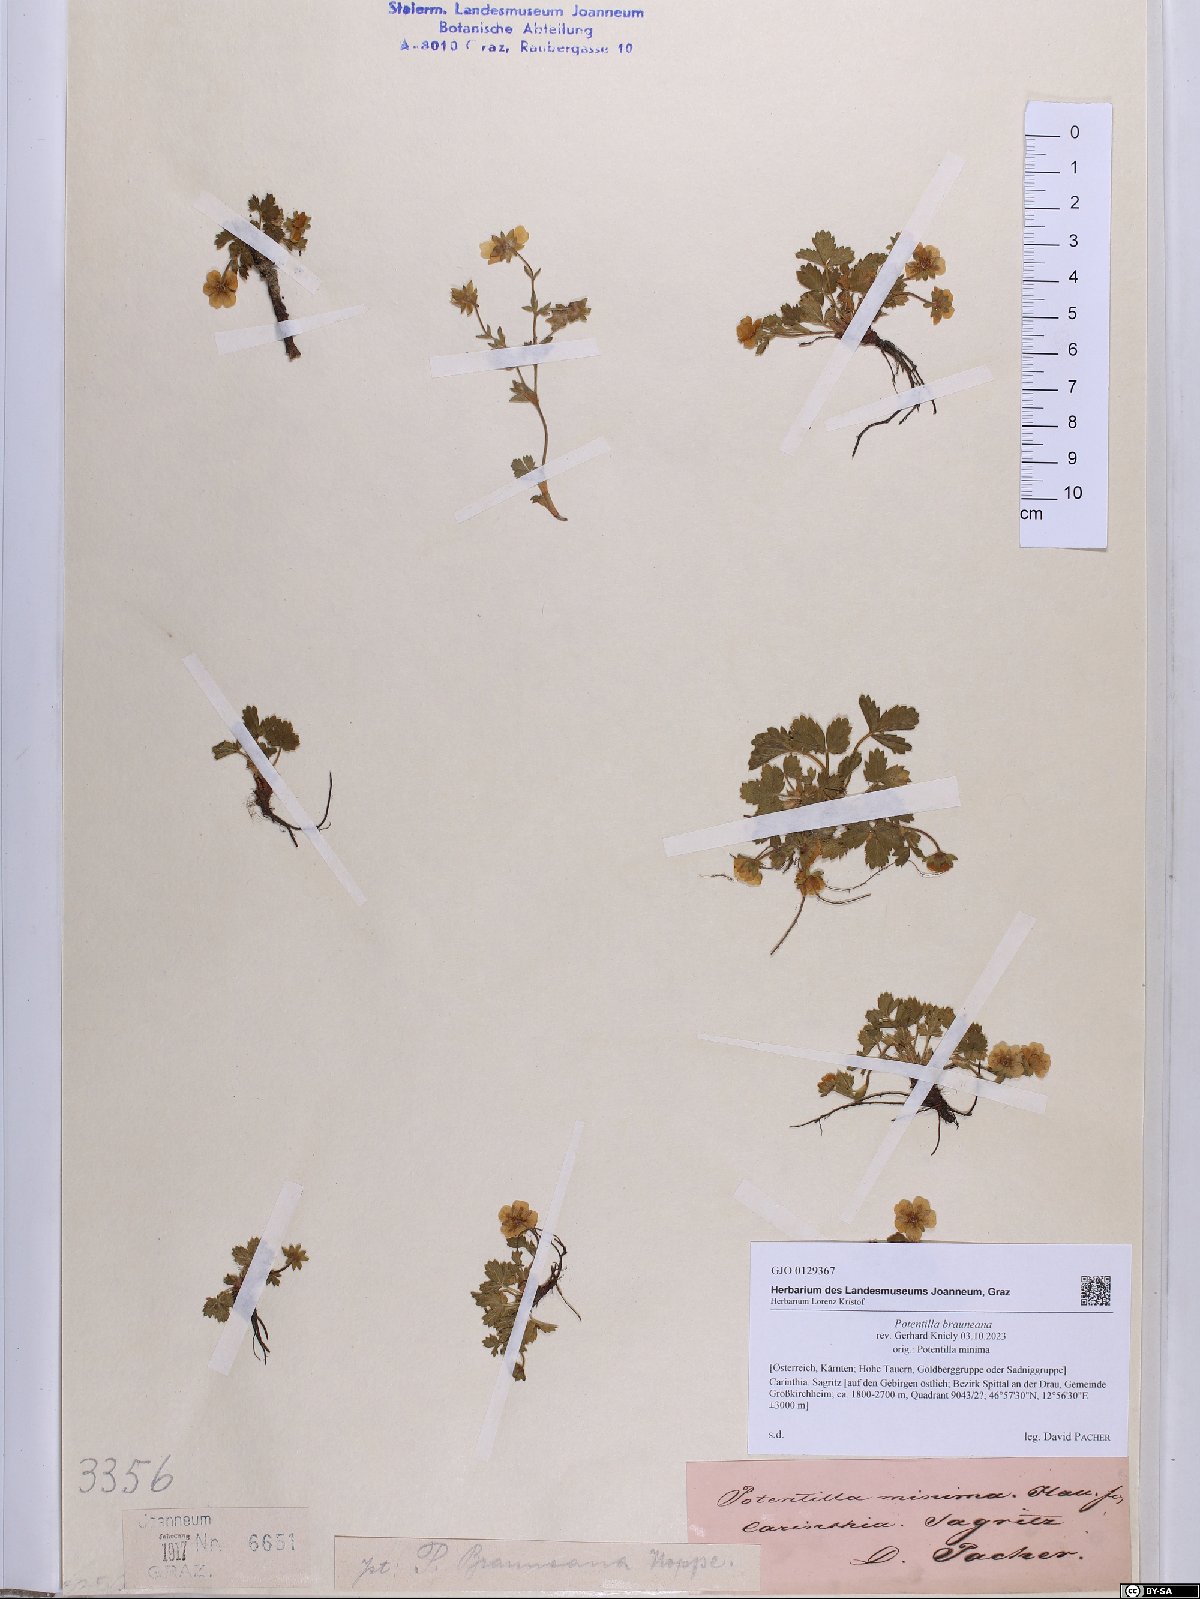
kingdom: Plantae
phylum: Tracheophyta
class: Magnoliopsida
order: Rosales
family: Rosaceae
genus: Potentilla
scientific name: Potentilla brauneana
